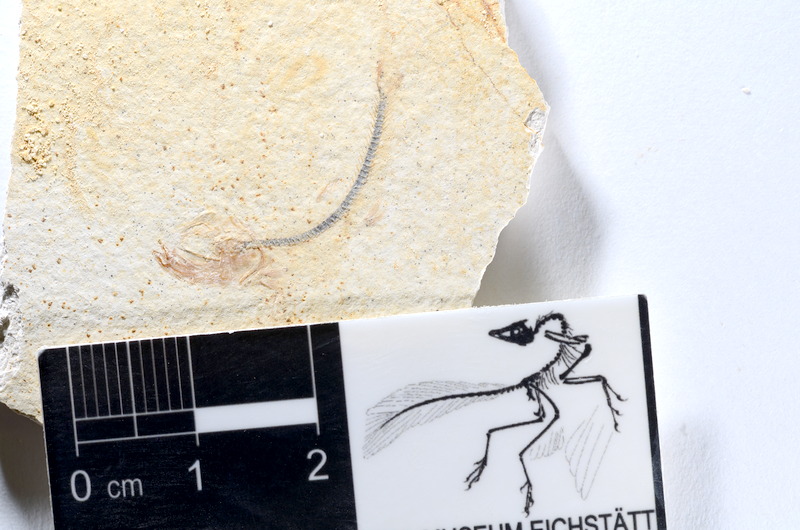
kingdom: Animalia
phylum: Chordata
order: Salmoniformes
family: Orthogonikleithridae
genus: Orthogonikleithrus
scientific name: Orthogonikleithrus hoelli
